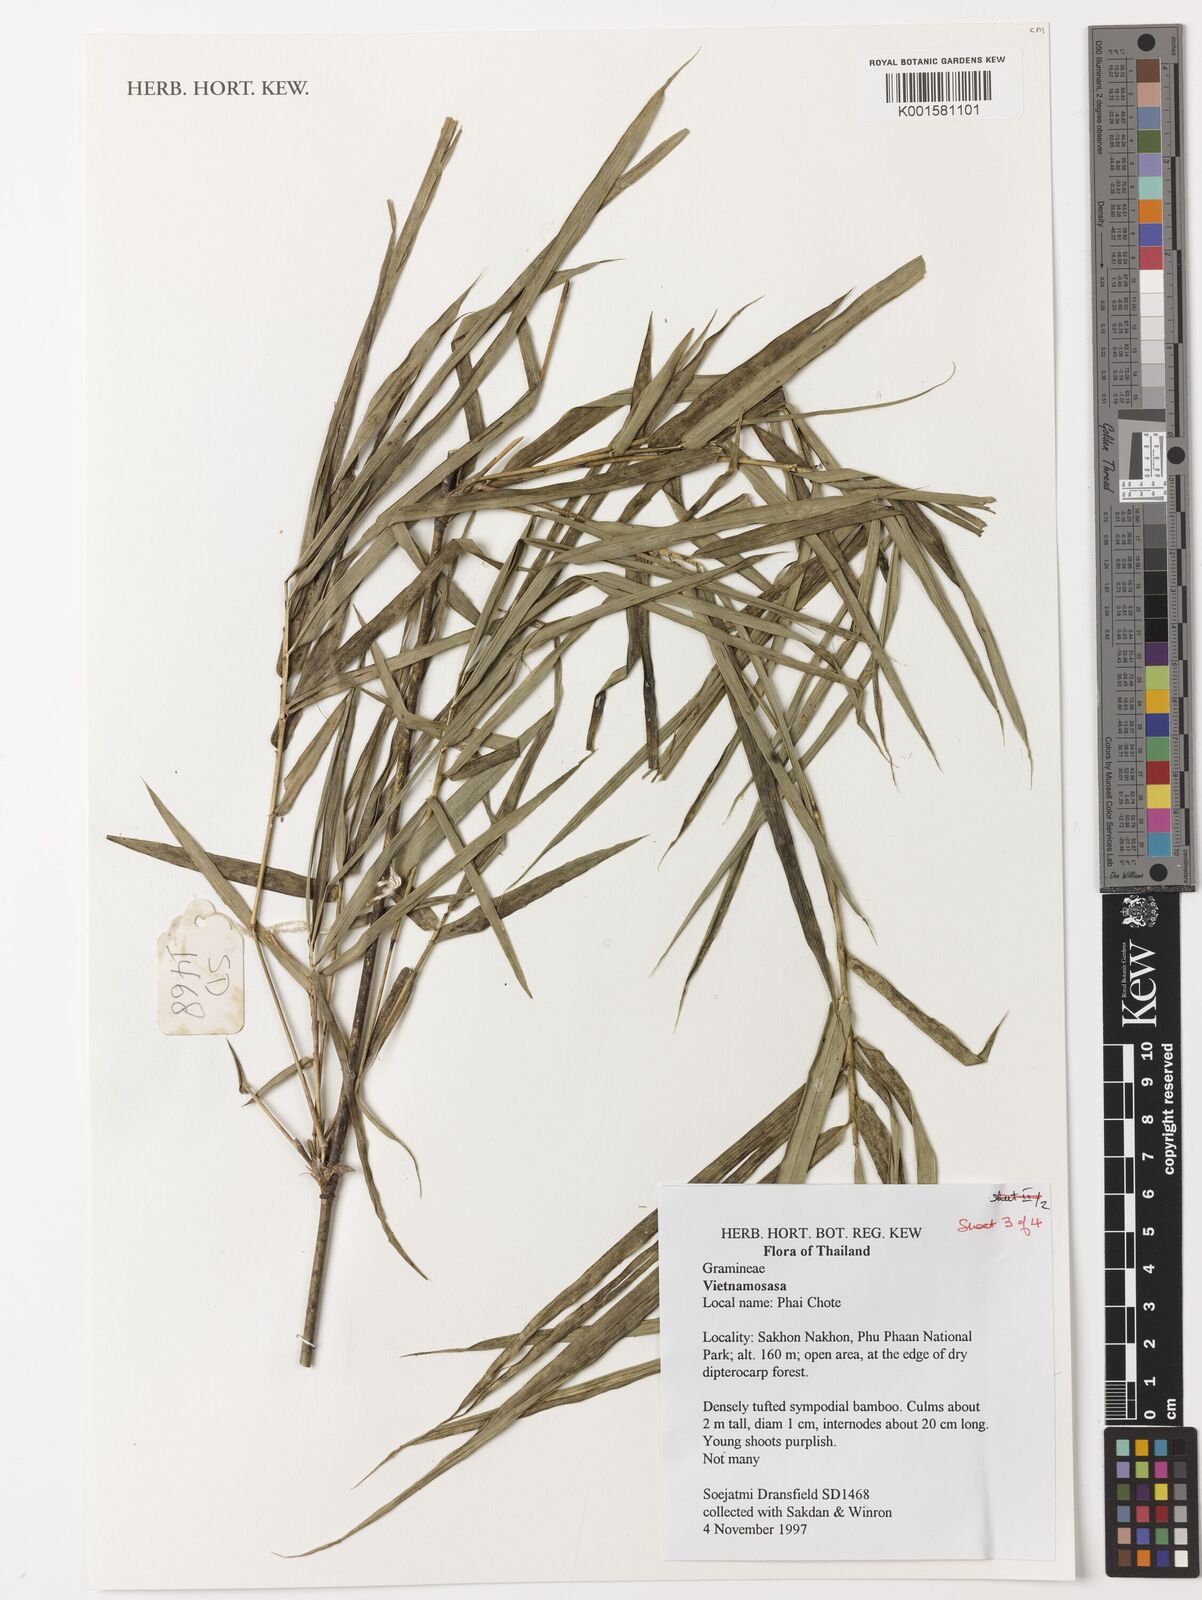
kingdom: Plantae
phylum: Tracheophyta
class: Liliopsida
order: Poales
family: Poaceae
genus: Vietnamosasa
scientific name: Vietnamosasa
